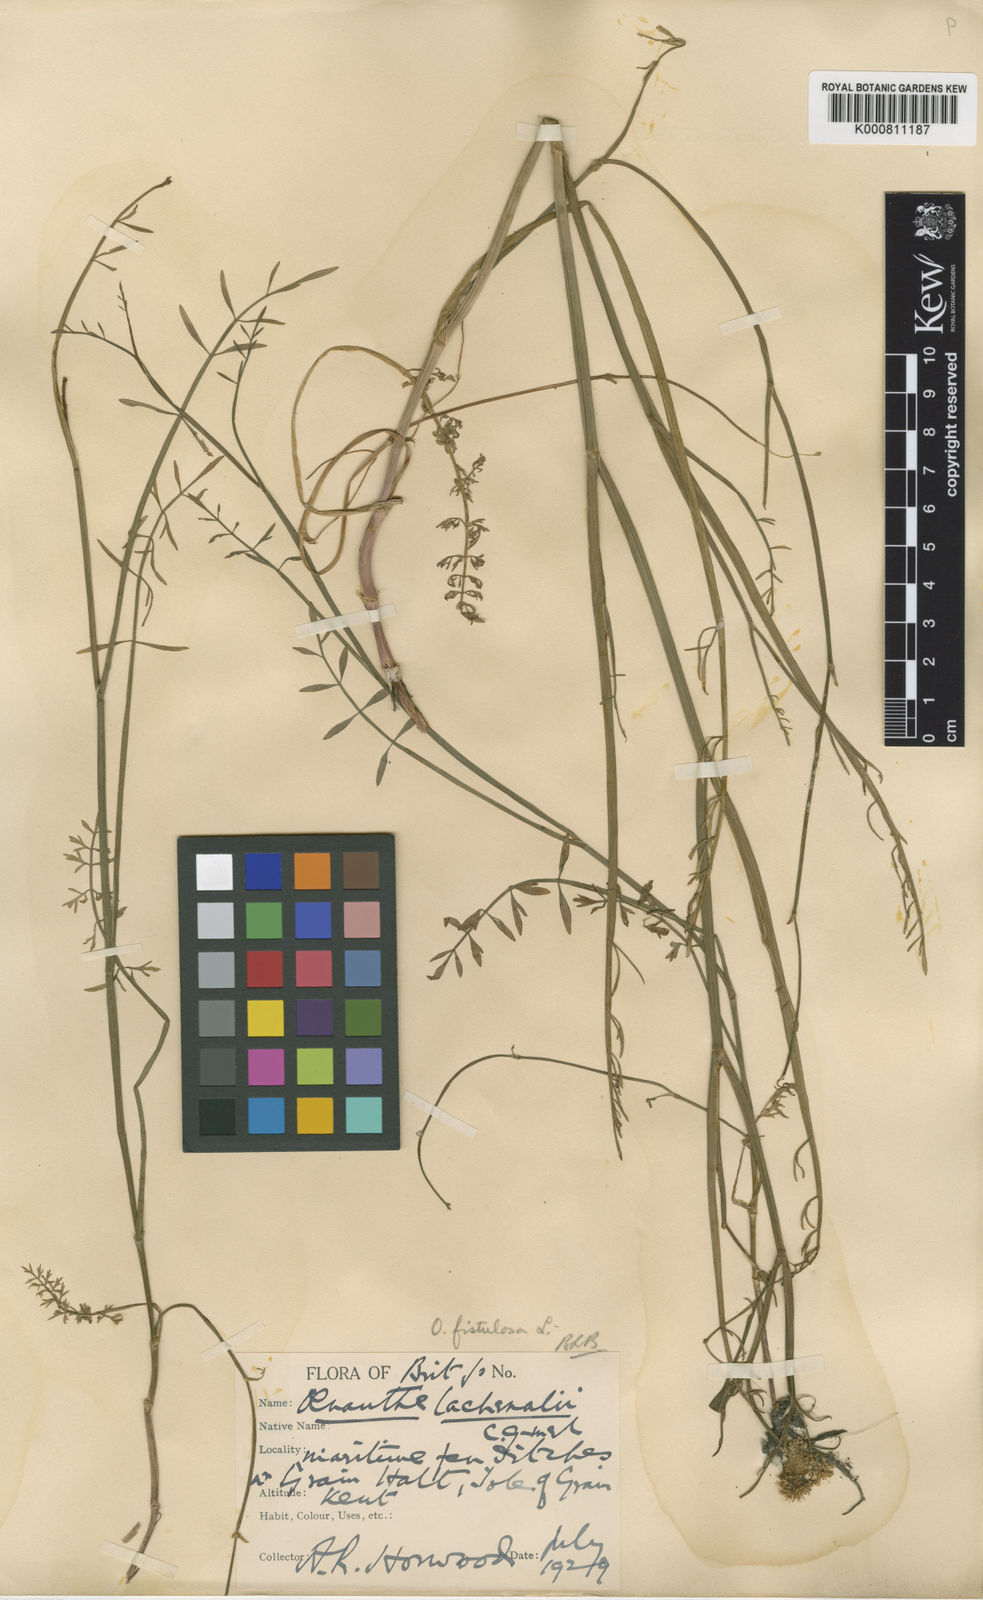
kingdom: Plantae
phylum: Tracheophyta
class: Magnoliopsida
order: Apiales
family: Apiaceae
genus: Oenanthe
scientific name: Oenanthe fistulosa
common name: Tubular water-dropwort
